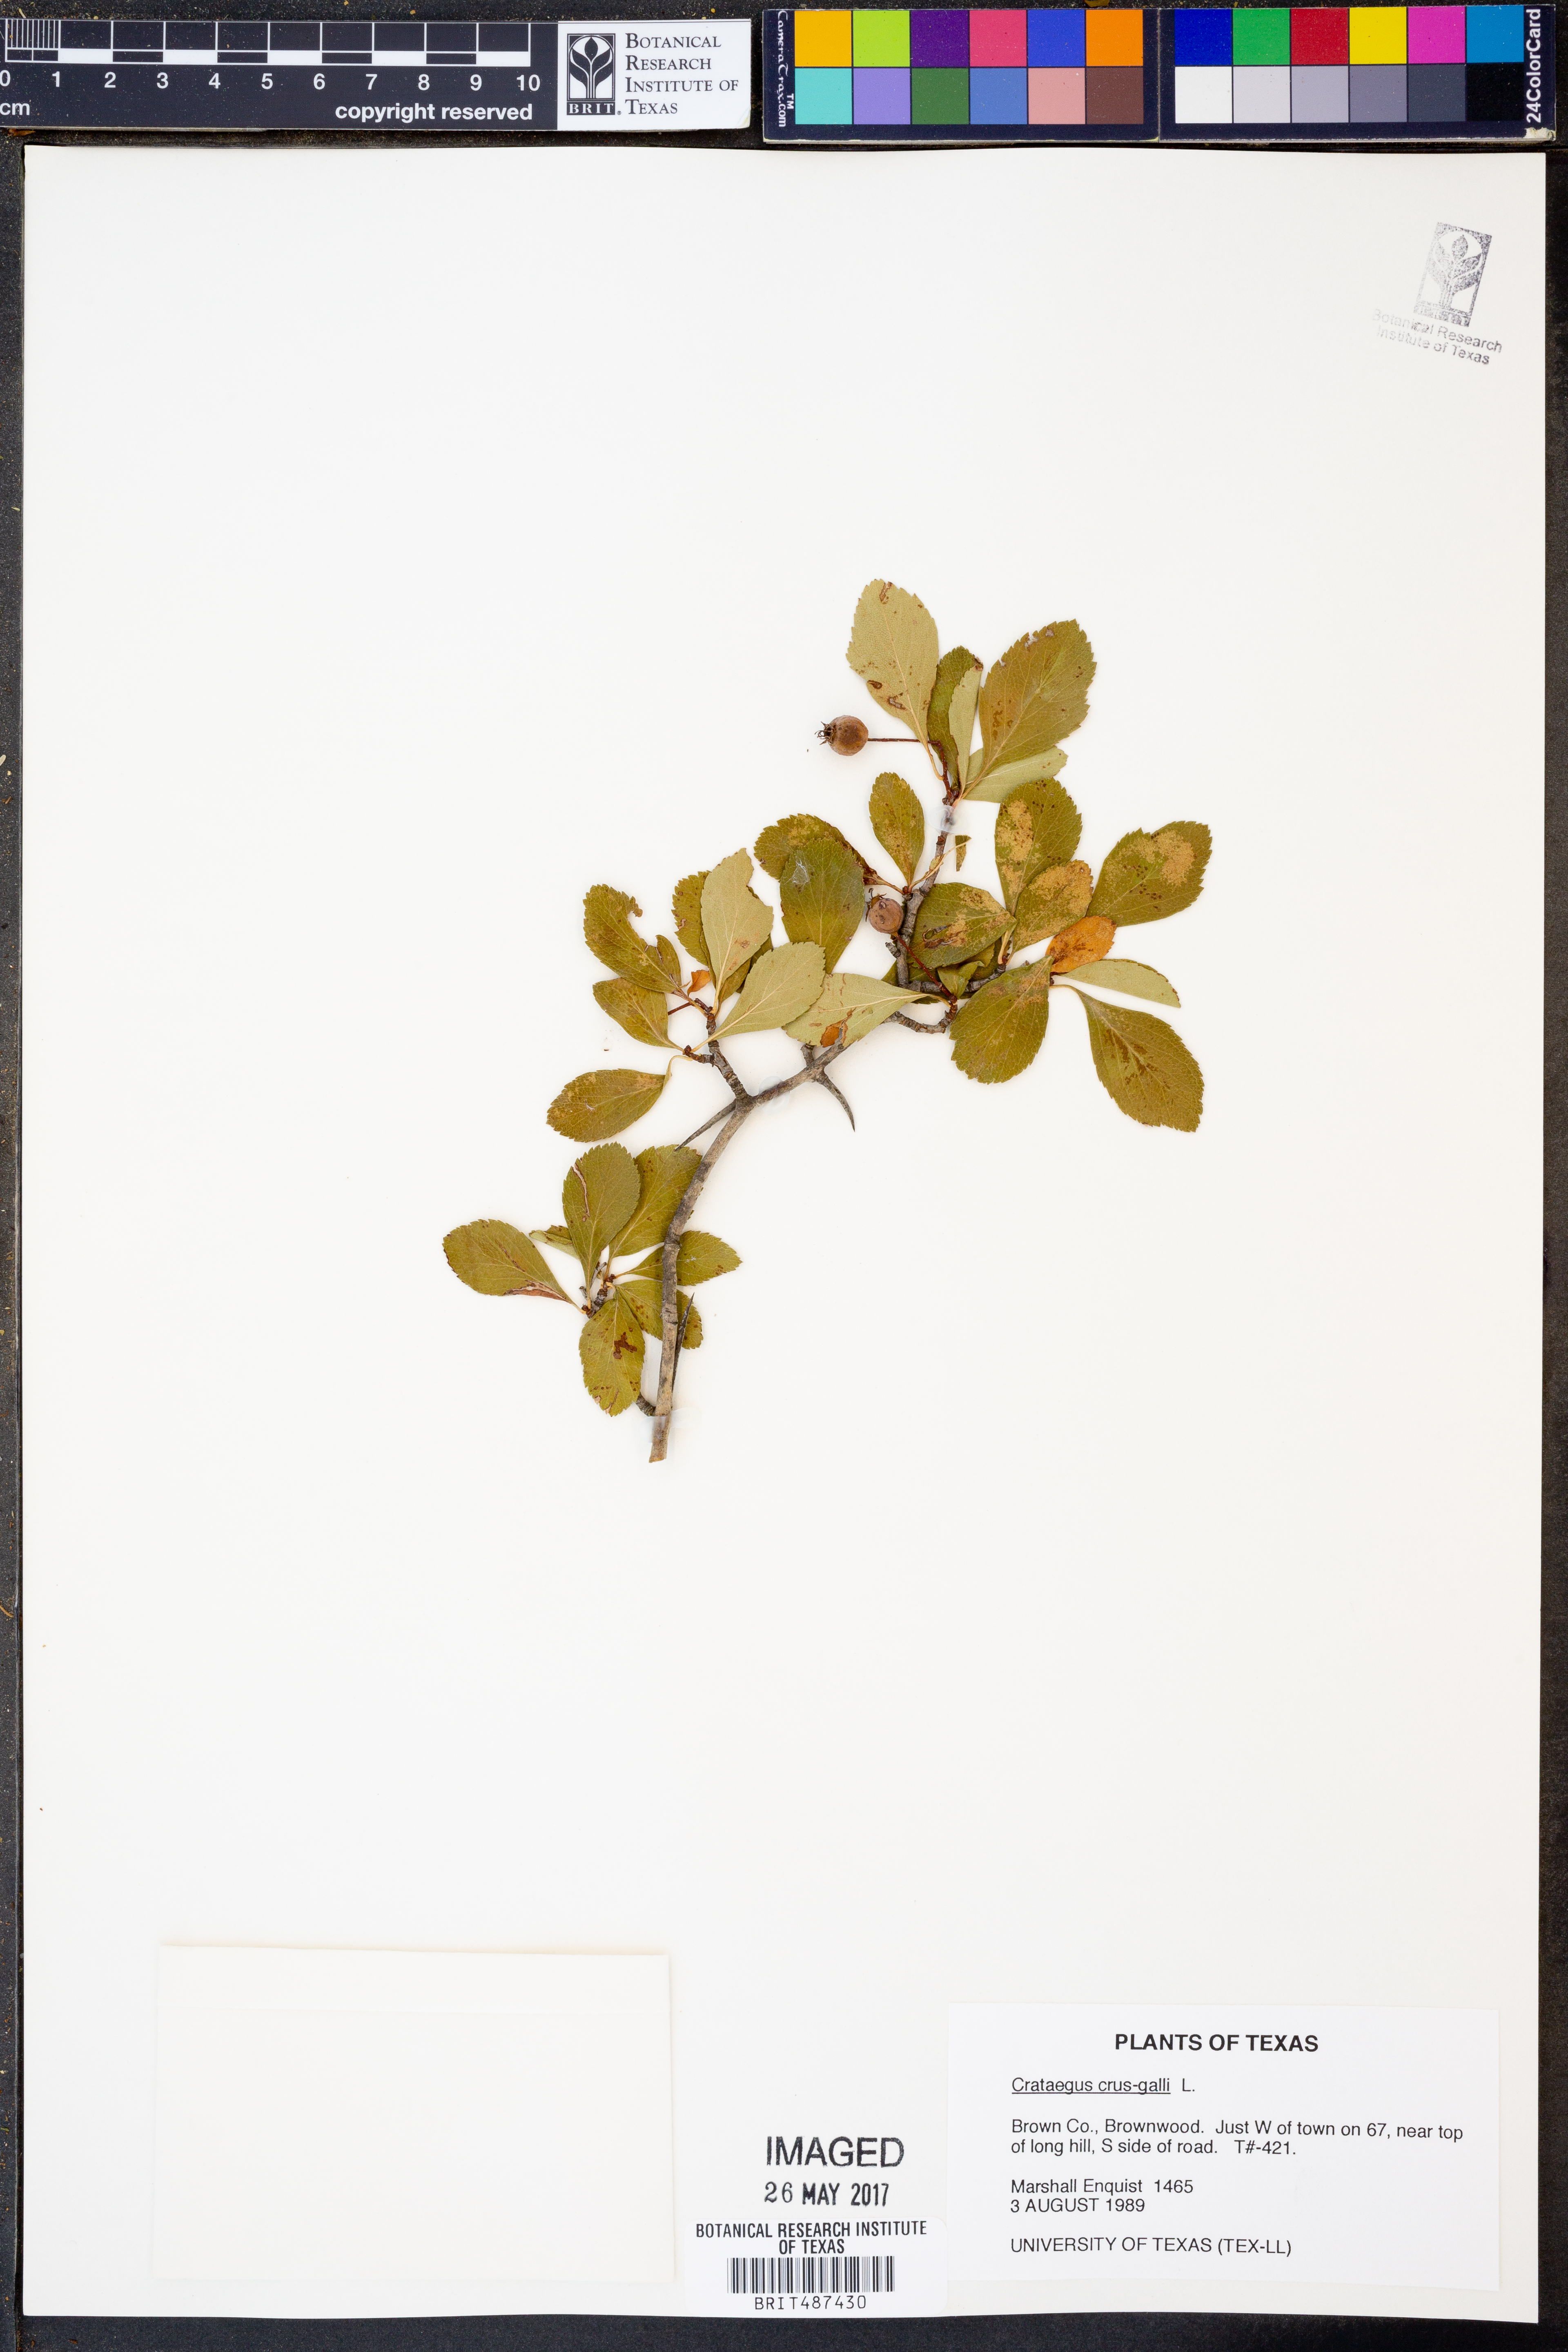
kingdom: Plantae
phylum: Tracheophyta
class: Magnoliopsida
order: Rosales
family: Rosaceae
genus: Crataegus
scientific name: Crataegus crus-galli
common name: Cockspurthorn
